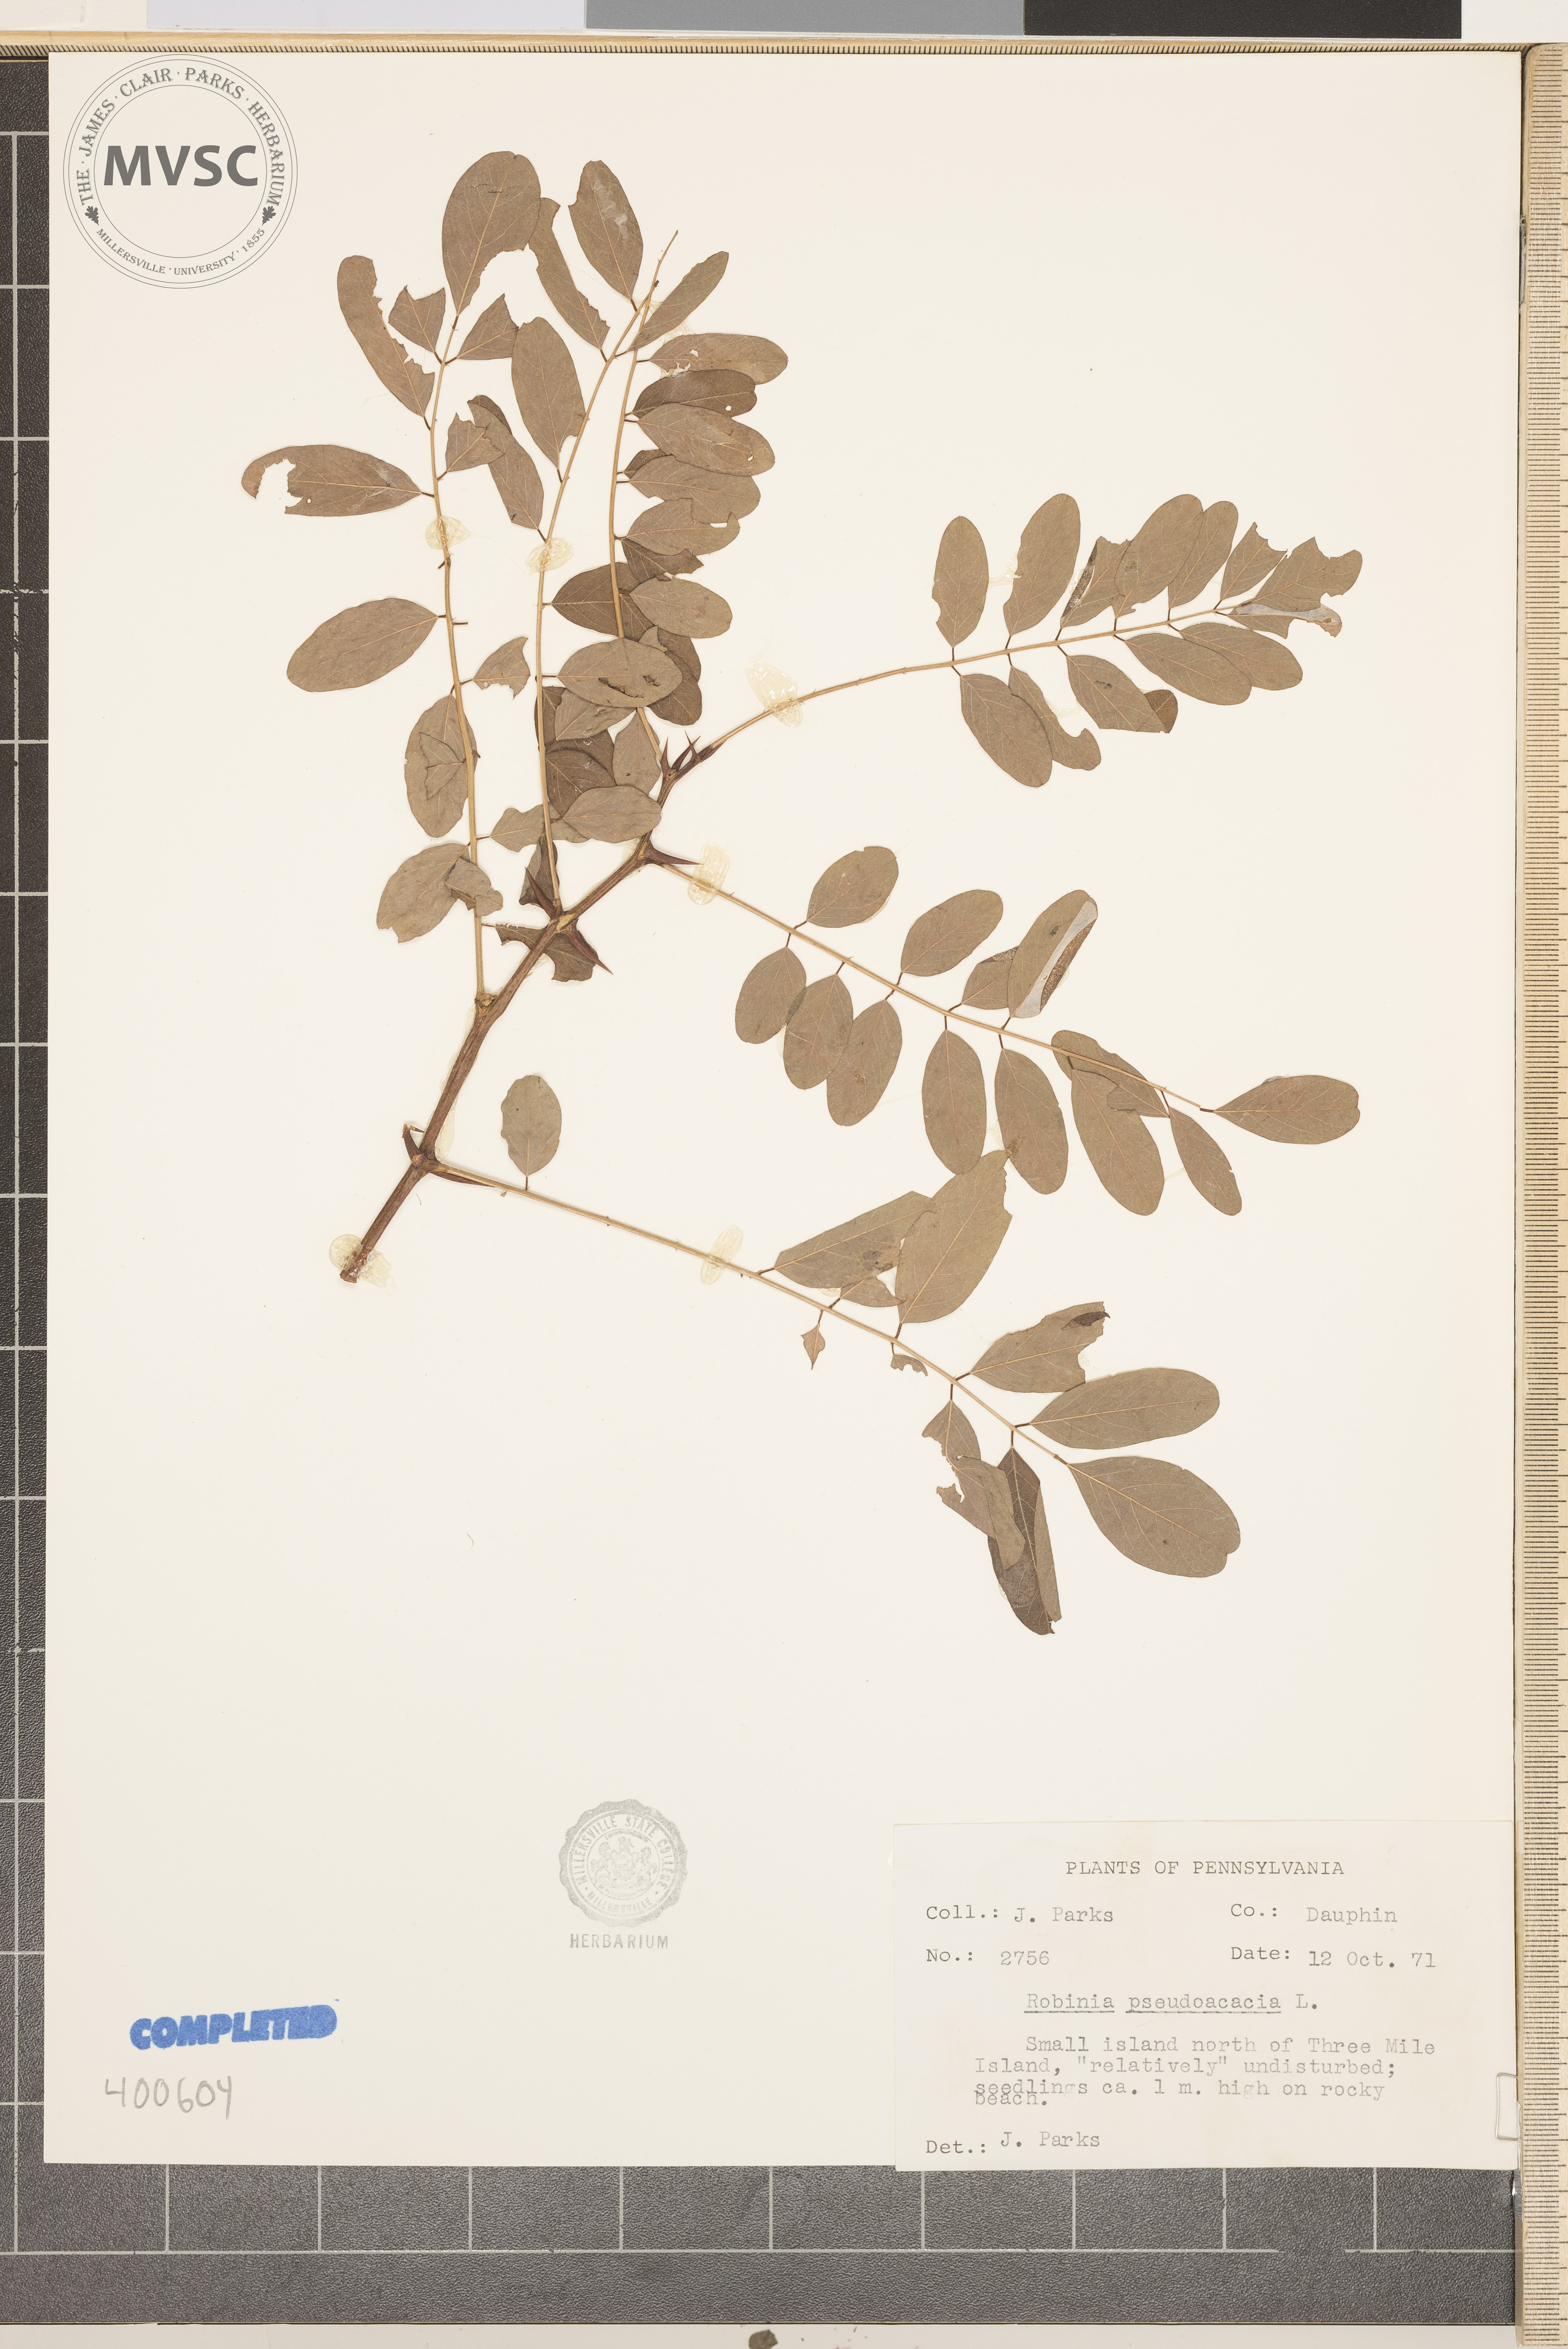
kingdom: Plantae
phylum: Tracheophyta
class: Magnoliopsida
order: Fabales
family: Fabaceae
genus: Robinia
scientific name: Robinia pseudoacacia
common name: black locust
